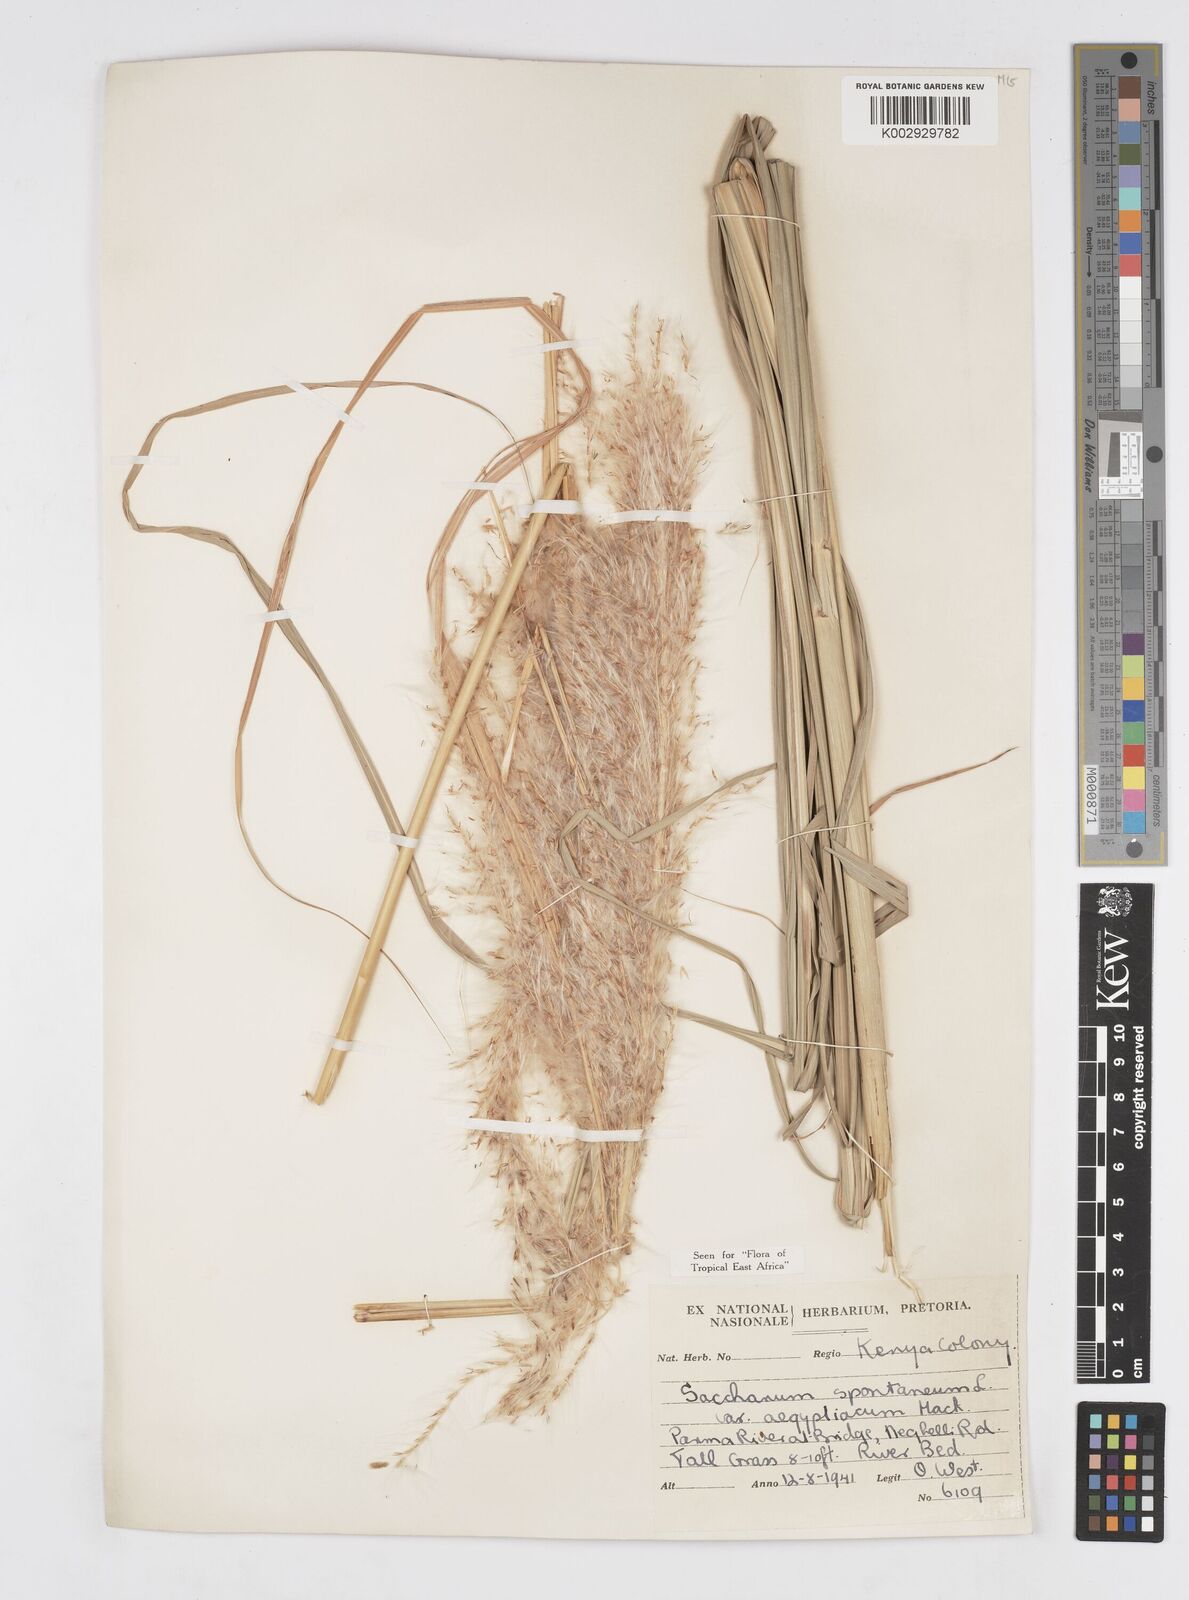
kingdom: Plantae
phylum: Tracheophyta
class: Liliopsida
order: Poales
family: Poaceae
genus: Saccharum
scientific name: Saccharum spontaneum
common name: Wild sugarcane
